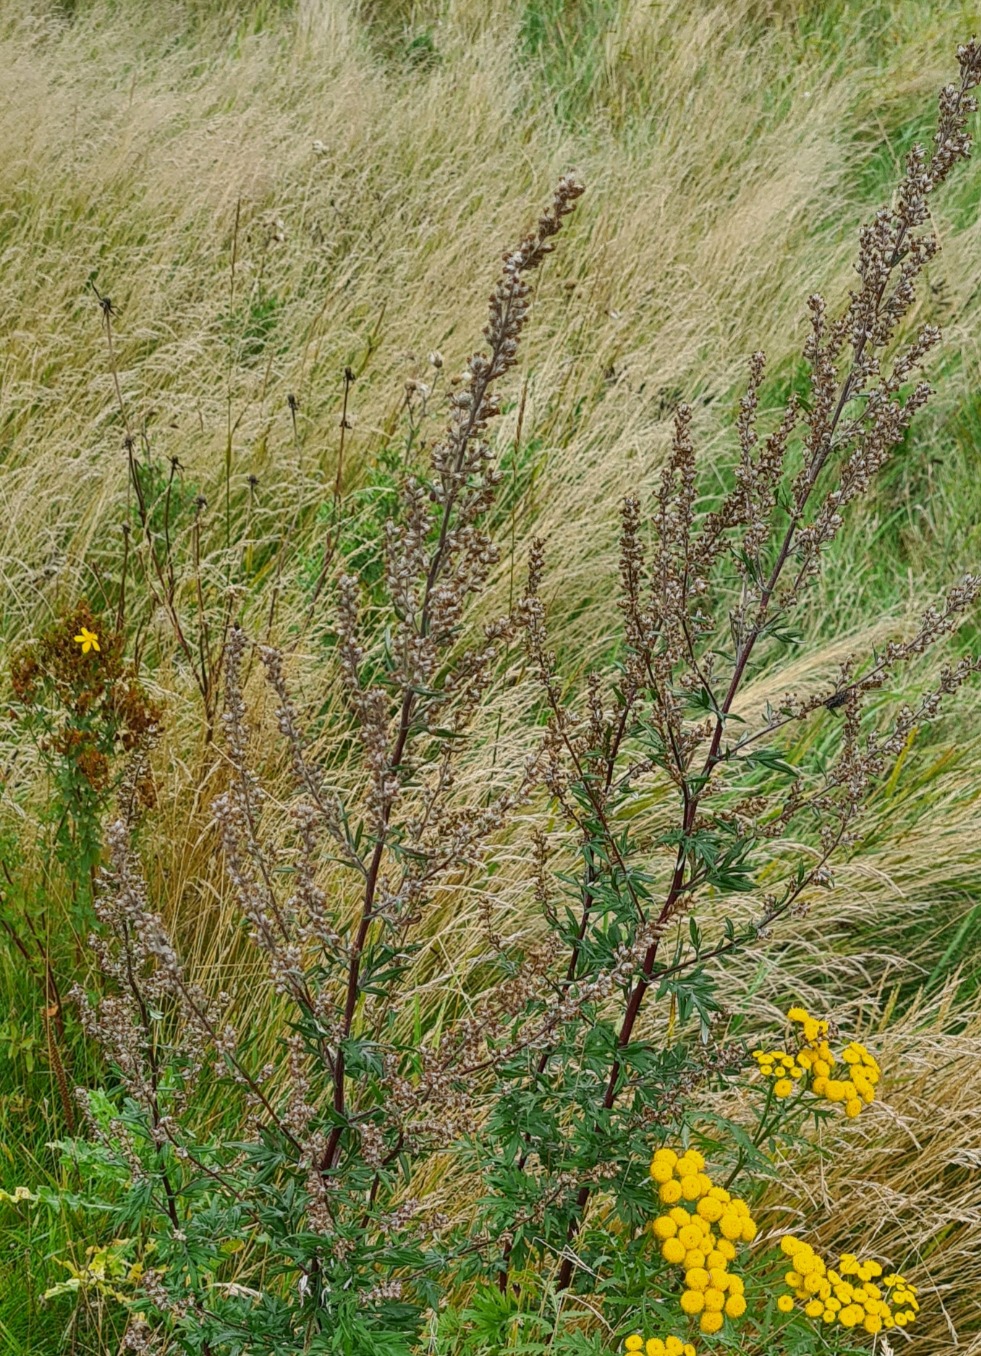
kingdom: Plantae
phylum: Tracheophyta
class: Magnoliopsida
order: Asterales
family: Asteraceae
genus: Artemisia
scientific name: Artemisia vulgaris
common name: Grå-bynke
